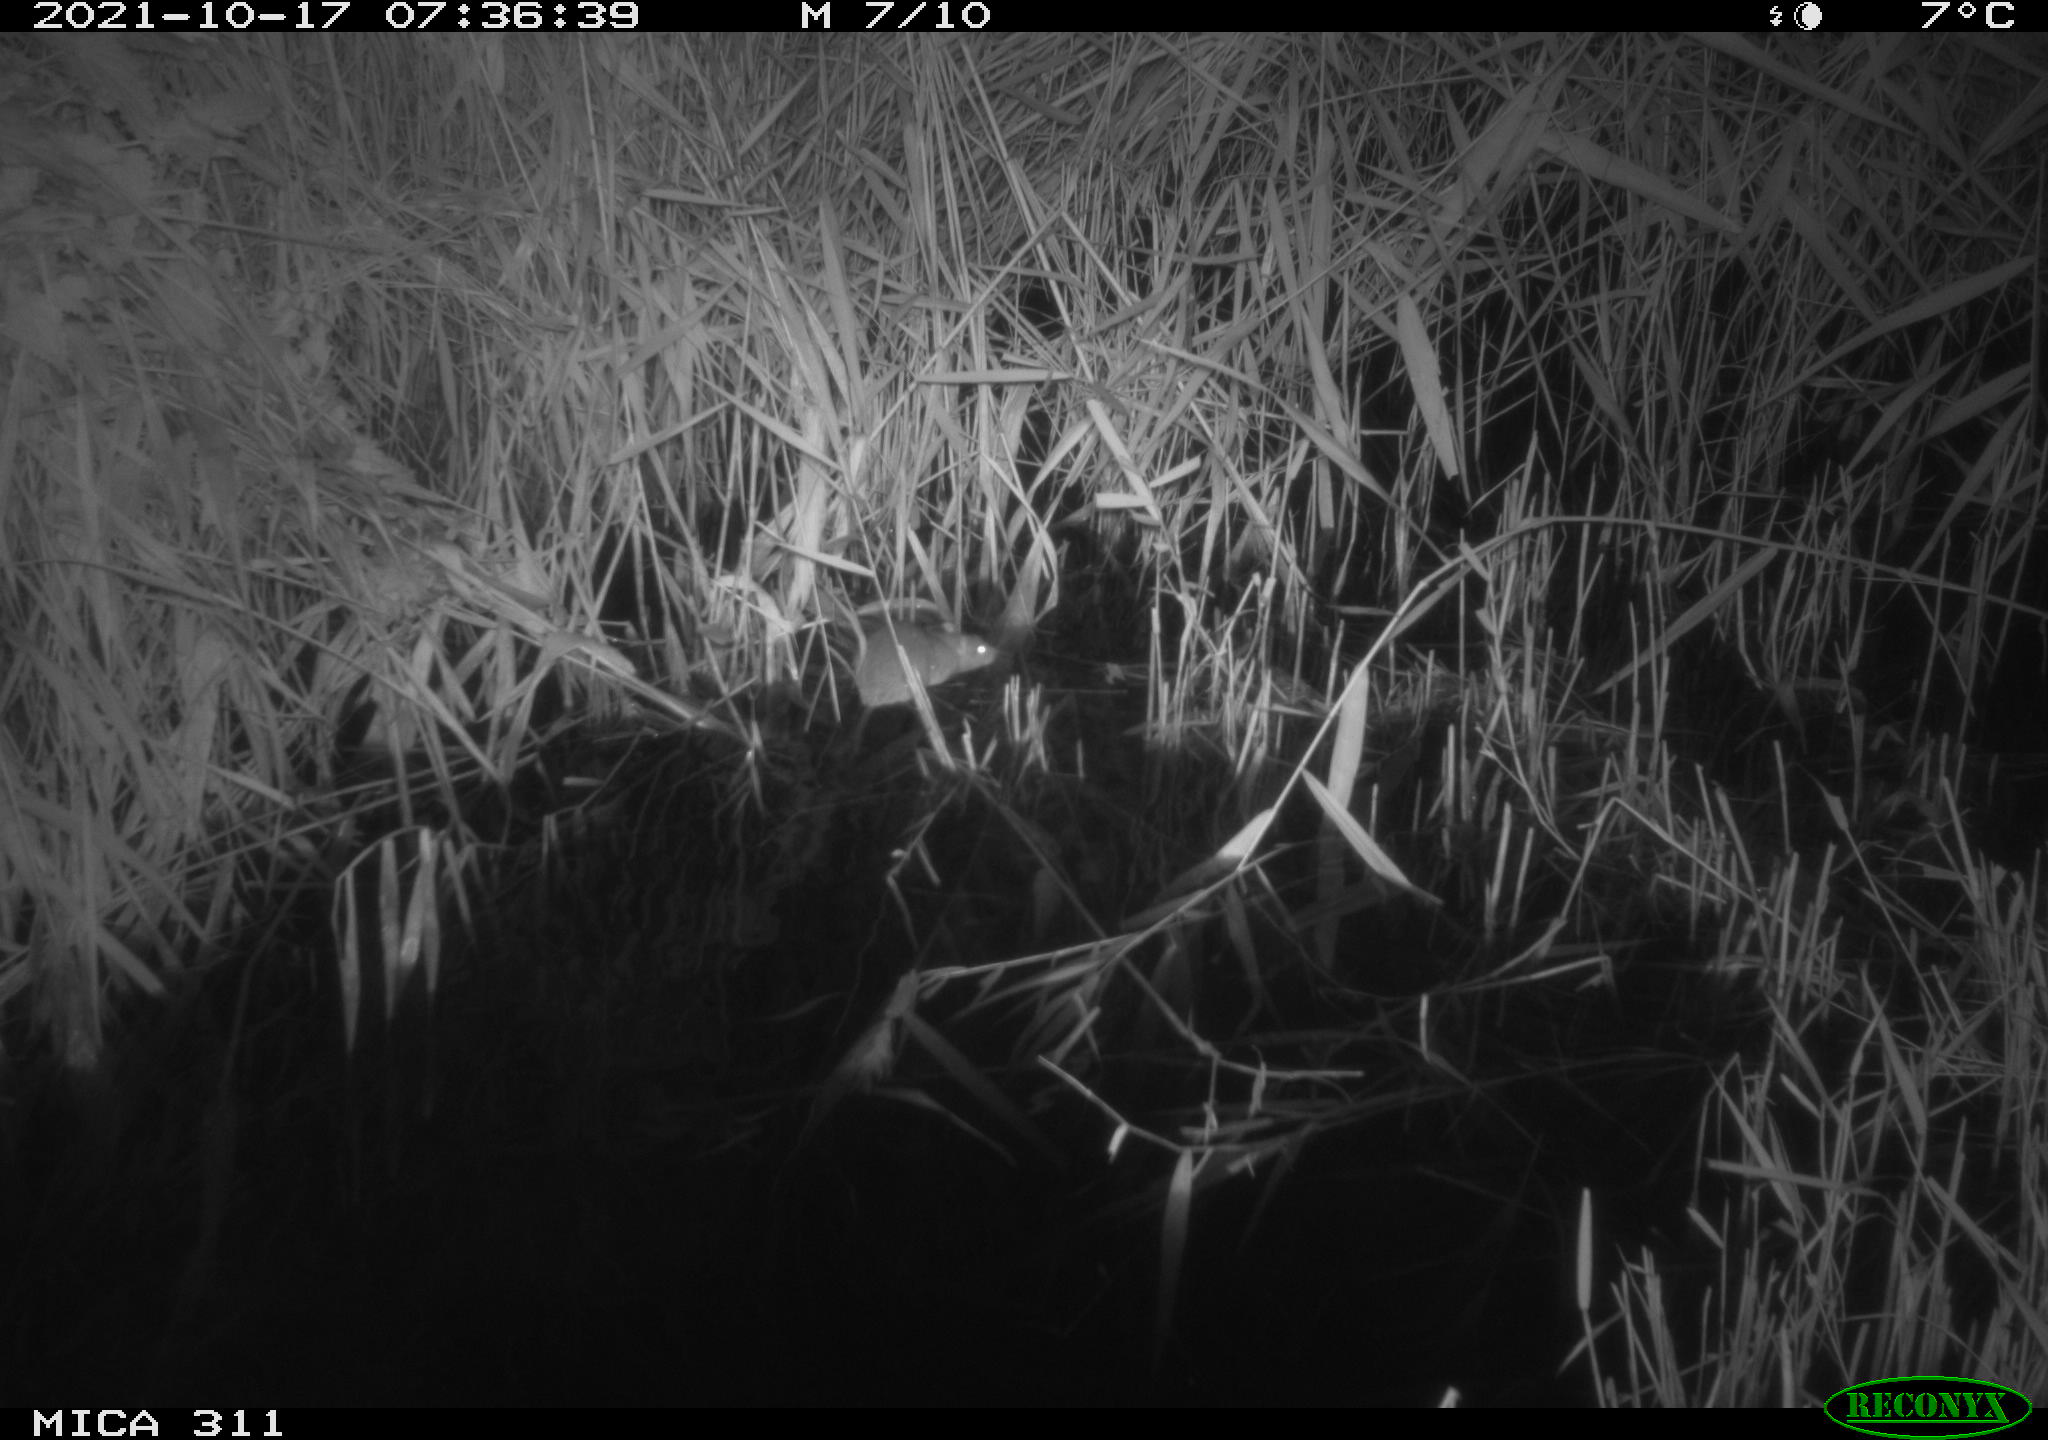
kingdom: Animalia
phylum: Chordata
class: Mammalia
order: Rodentia
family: Muridae
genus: Rattus
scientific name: Rattus norvegicus
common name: Brown rat
